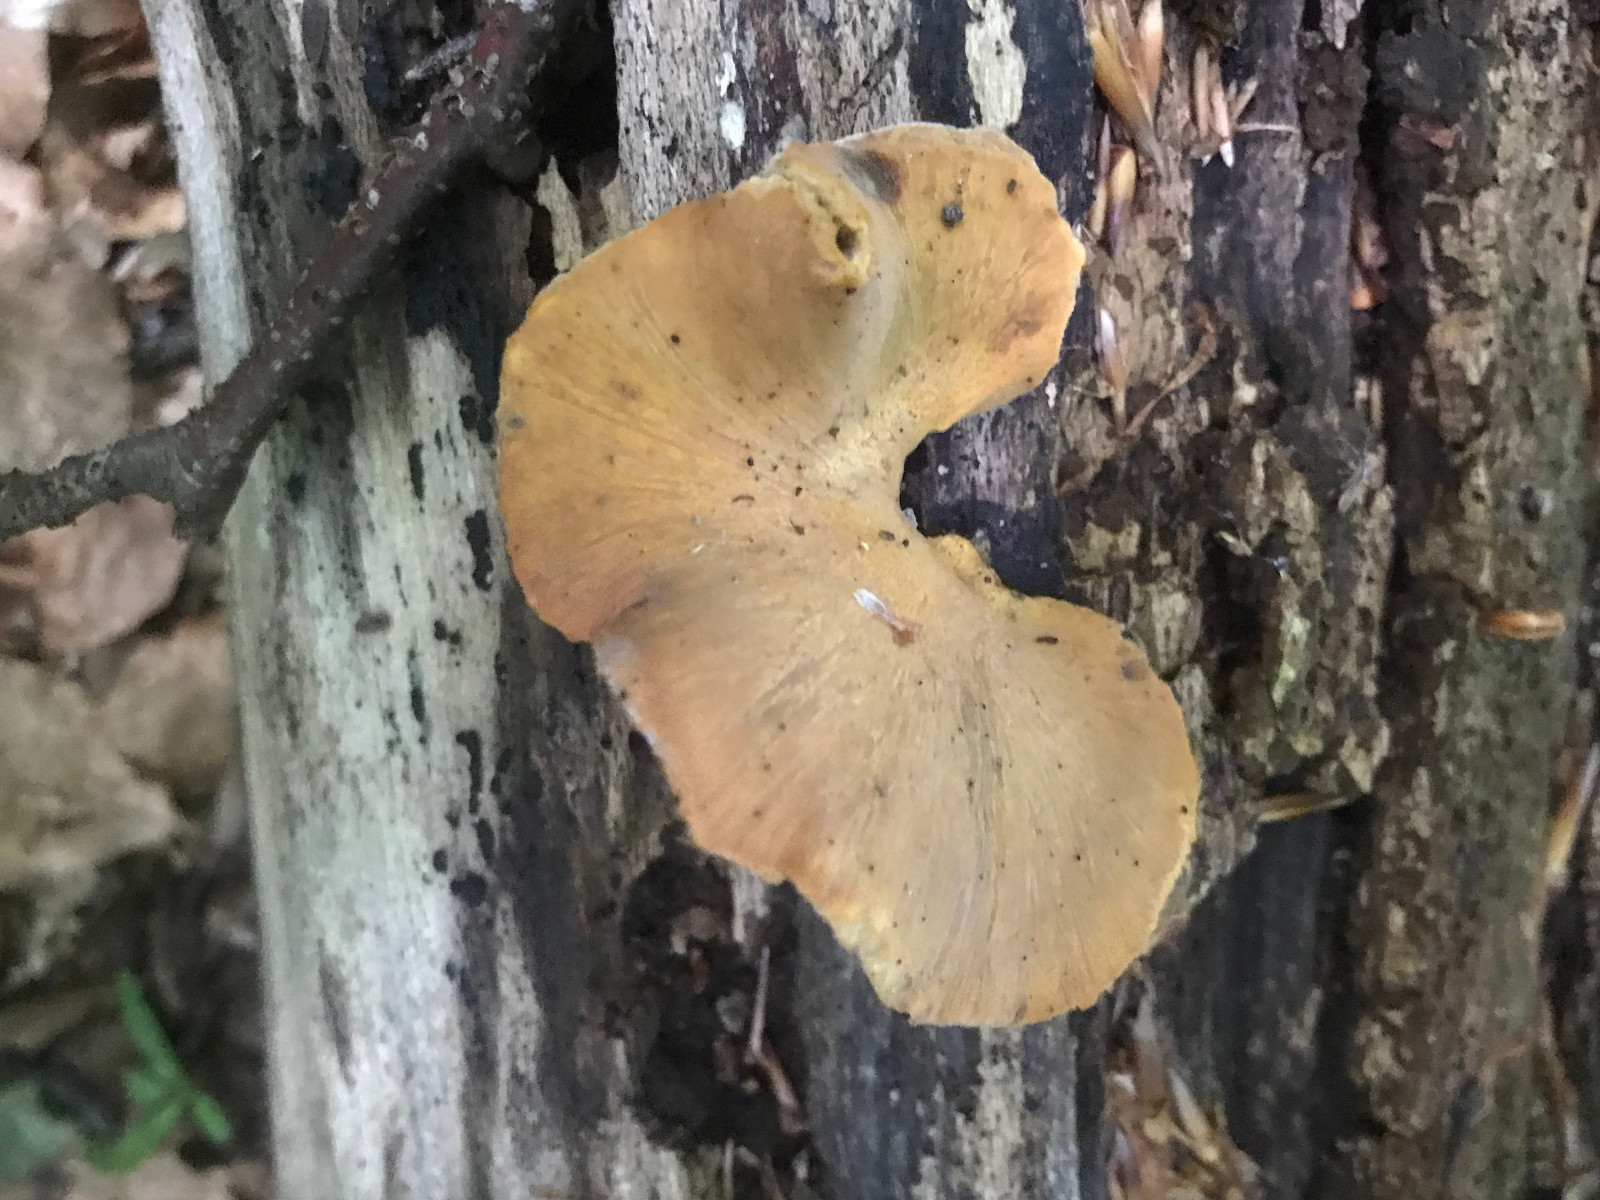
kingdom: Fungi
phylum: Basidiomycota
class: Agaricomycetes
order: Polyporales
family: Polyporaceae
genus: Cerioporus
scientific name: Cerioporus varius
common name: foranderlig stilkporesvamp
